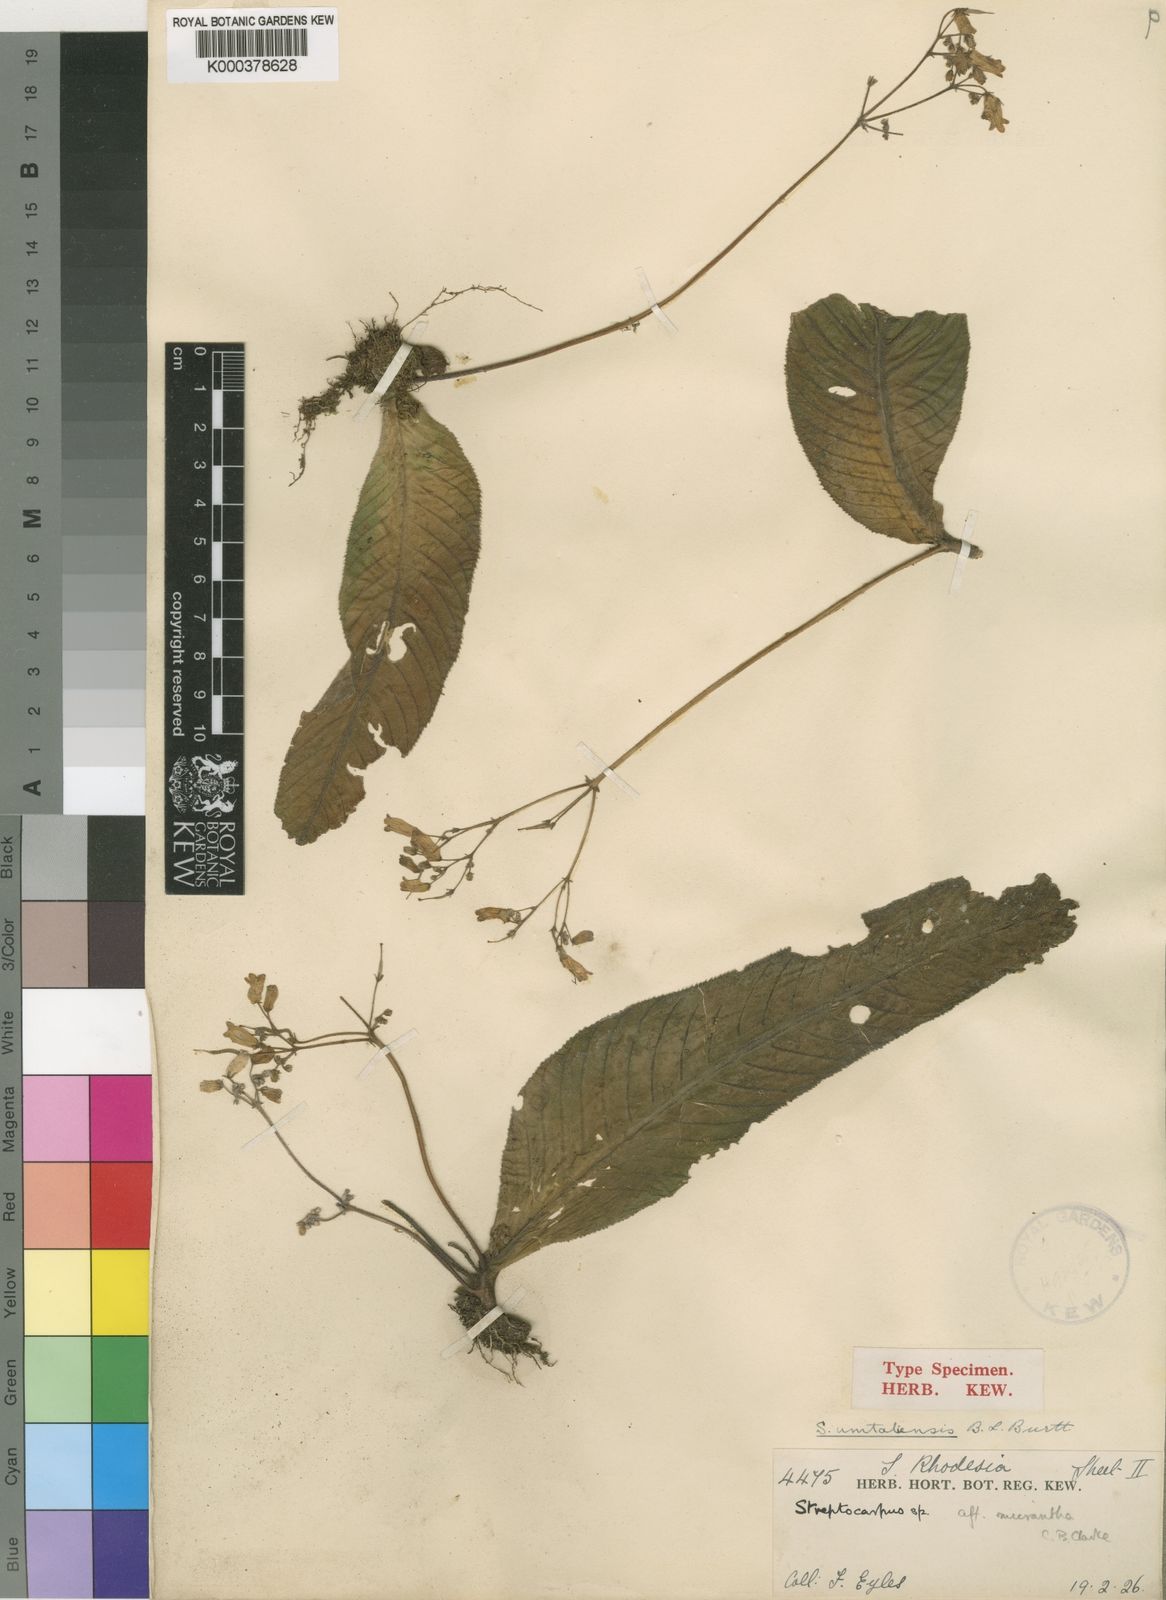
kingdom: Plantae
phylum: Tracheophyta
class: Magnoliopsida
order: Lamiales
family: Gesneriaceae
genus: Streptocarpus
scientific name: Streptocarpus umtaliensis
